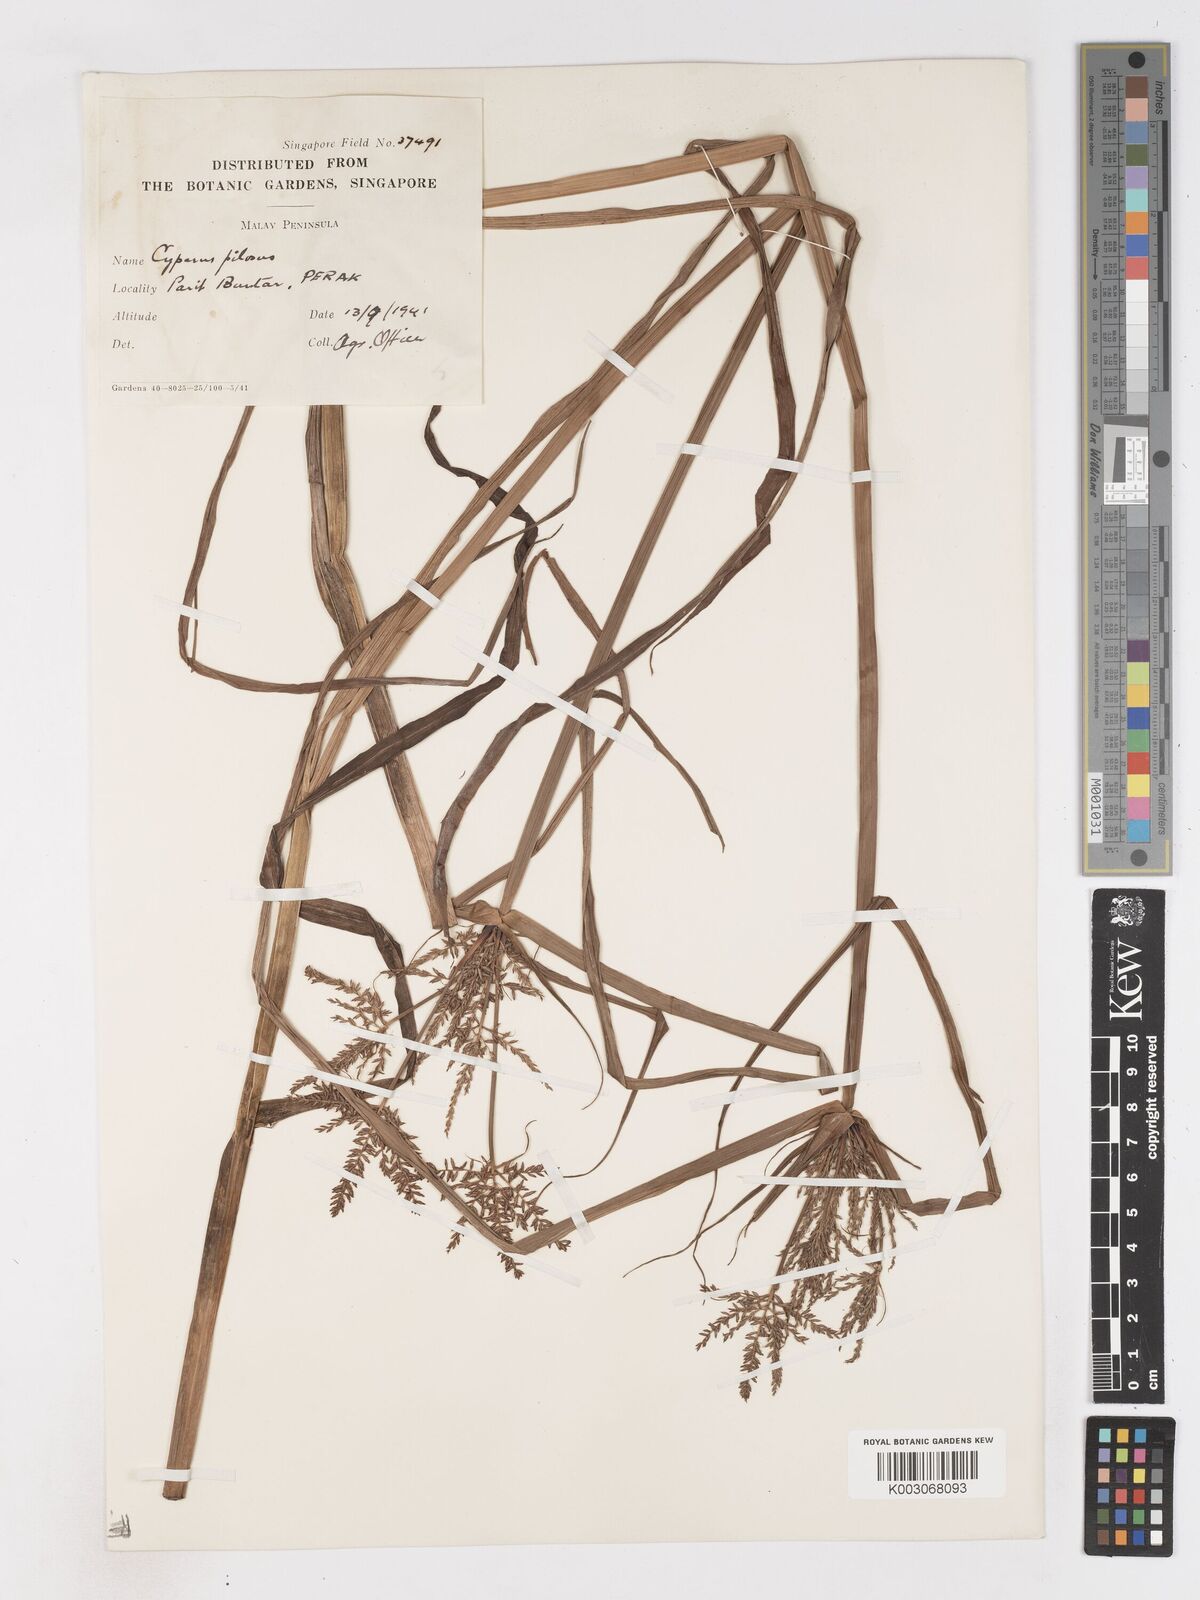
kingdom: Plantae
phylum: Tracheophyta
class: Liliopsida
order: Poales
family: Cyperaceae
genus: Cyperus
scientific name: Cyperus pilosus
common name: Fuzzy flatsedge
